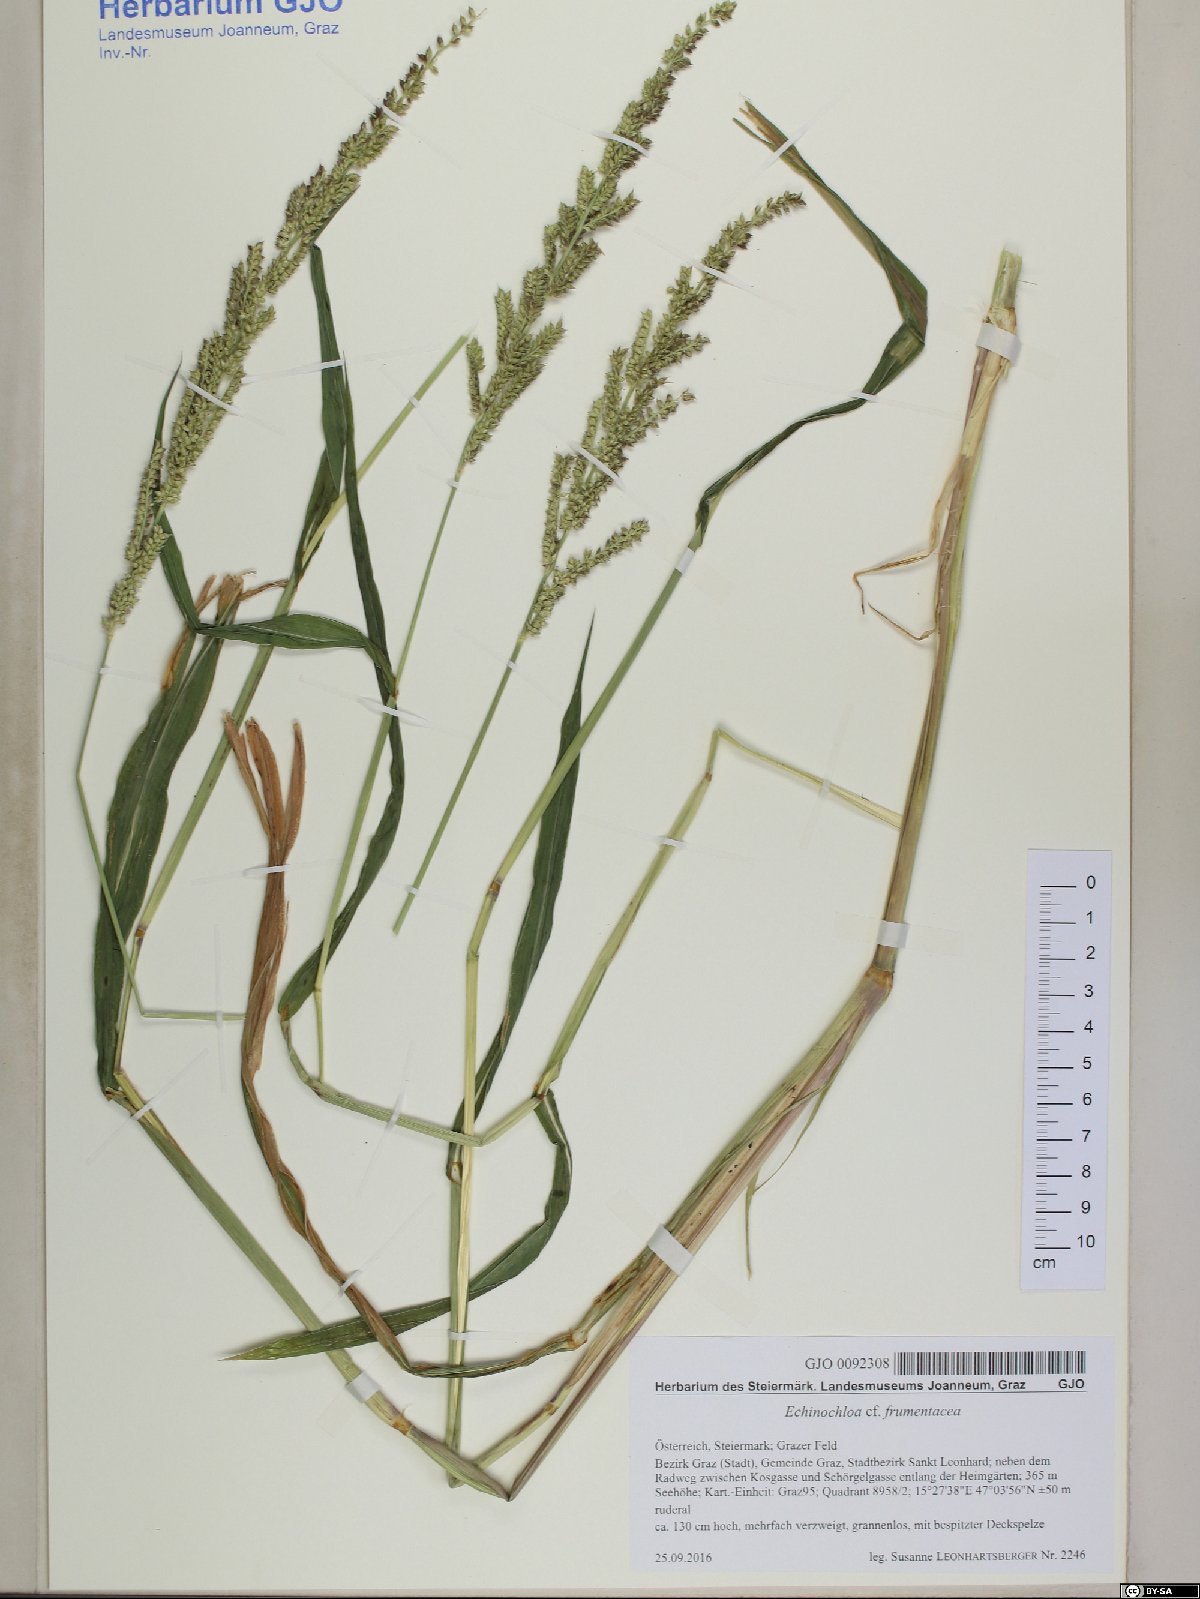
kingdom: Plantae
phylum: Tracheophyta
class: Liliopsida
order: Poales
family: Poaceae
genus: Echinochloa
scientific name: Echinochloa crus-galli
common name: Cockspur
